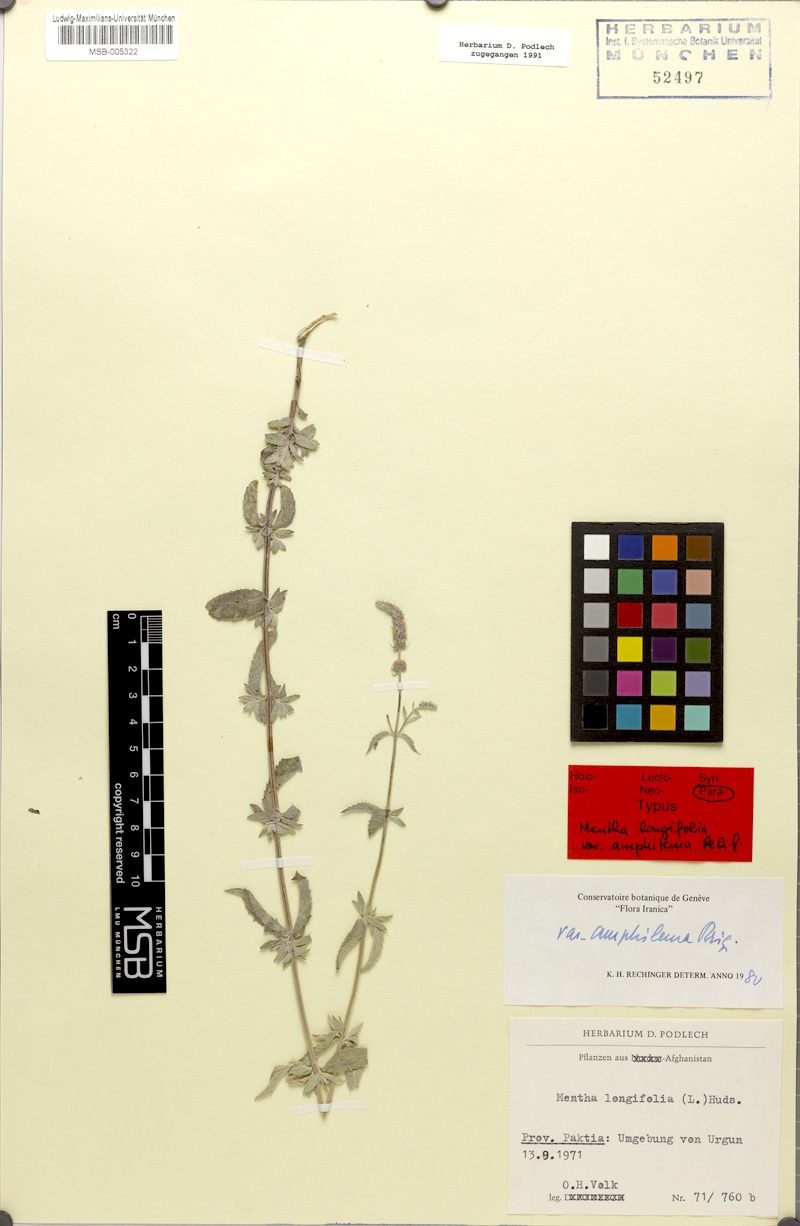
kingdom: Plantae
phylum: Tracheophyta
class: Magnoliopsida
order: Lamiales
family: Lamiaceae
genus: Mentha
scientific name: Mentha royleana
